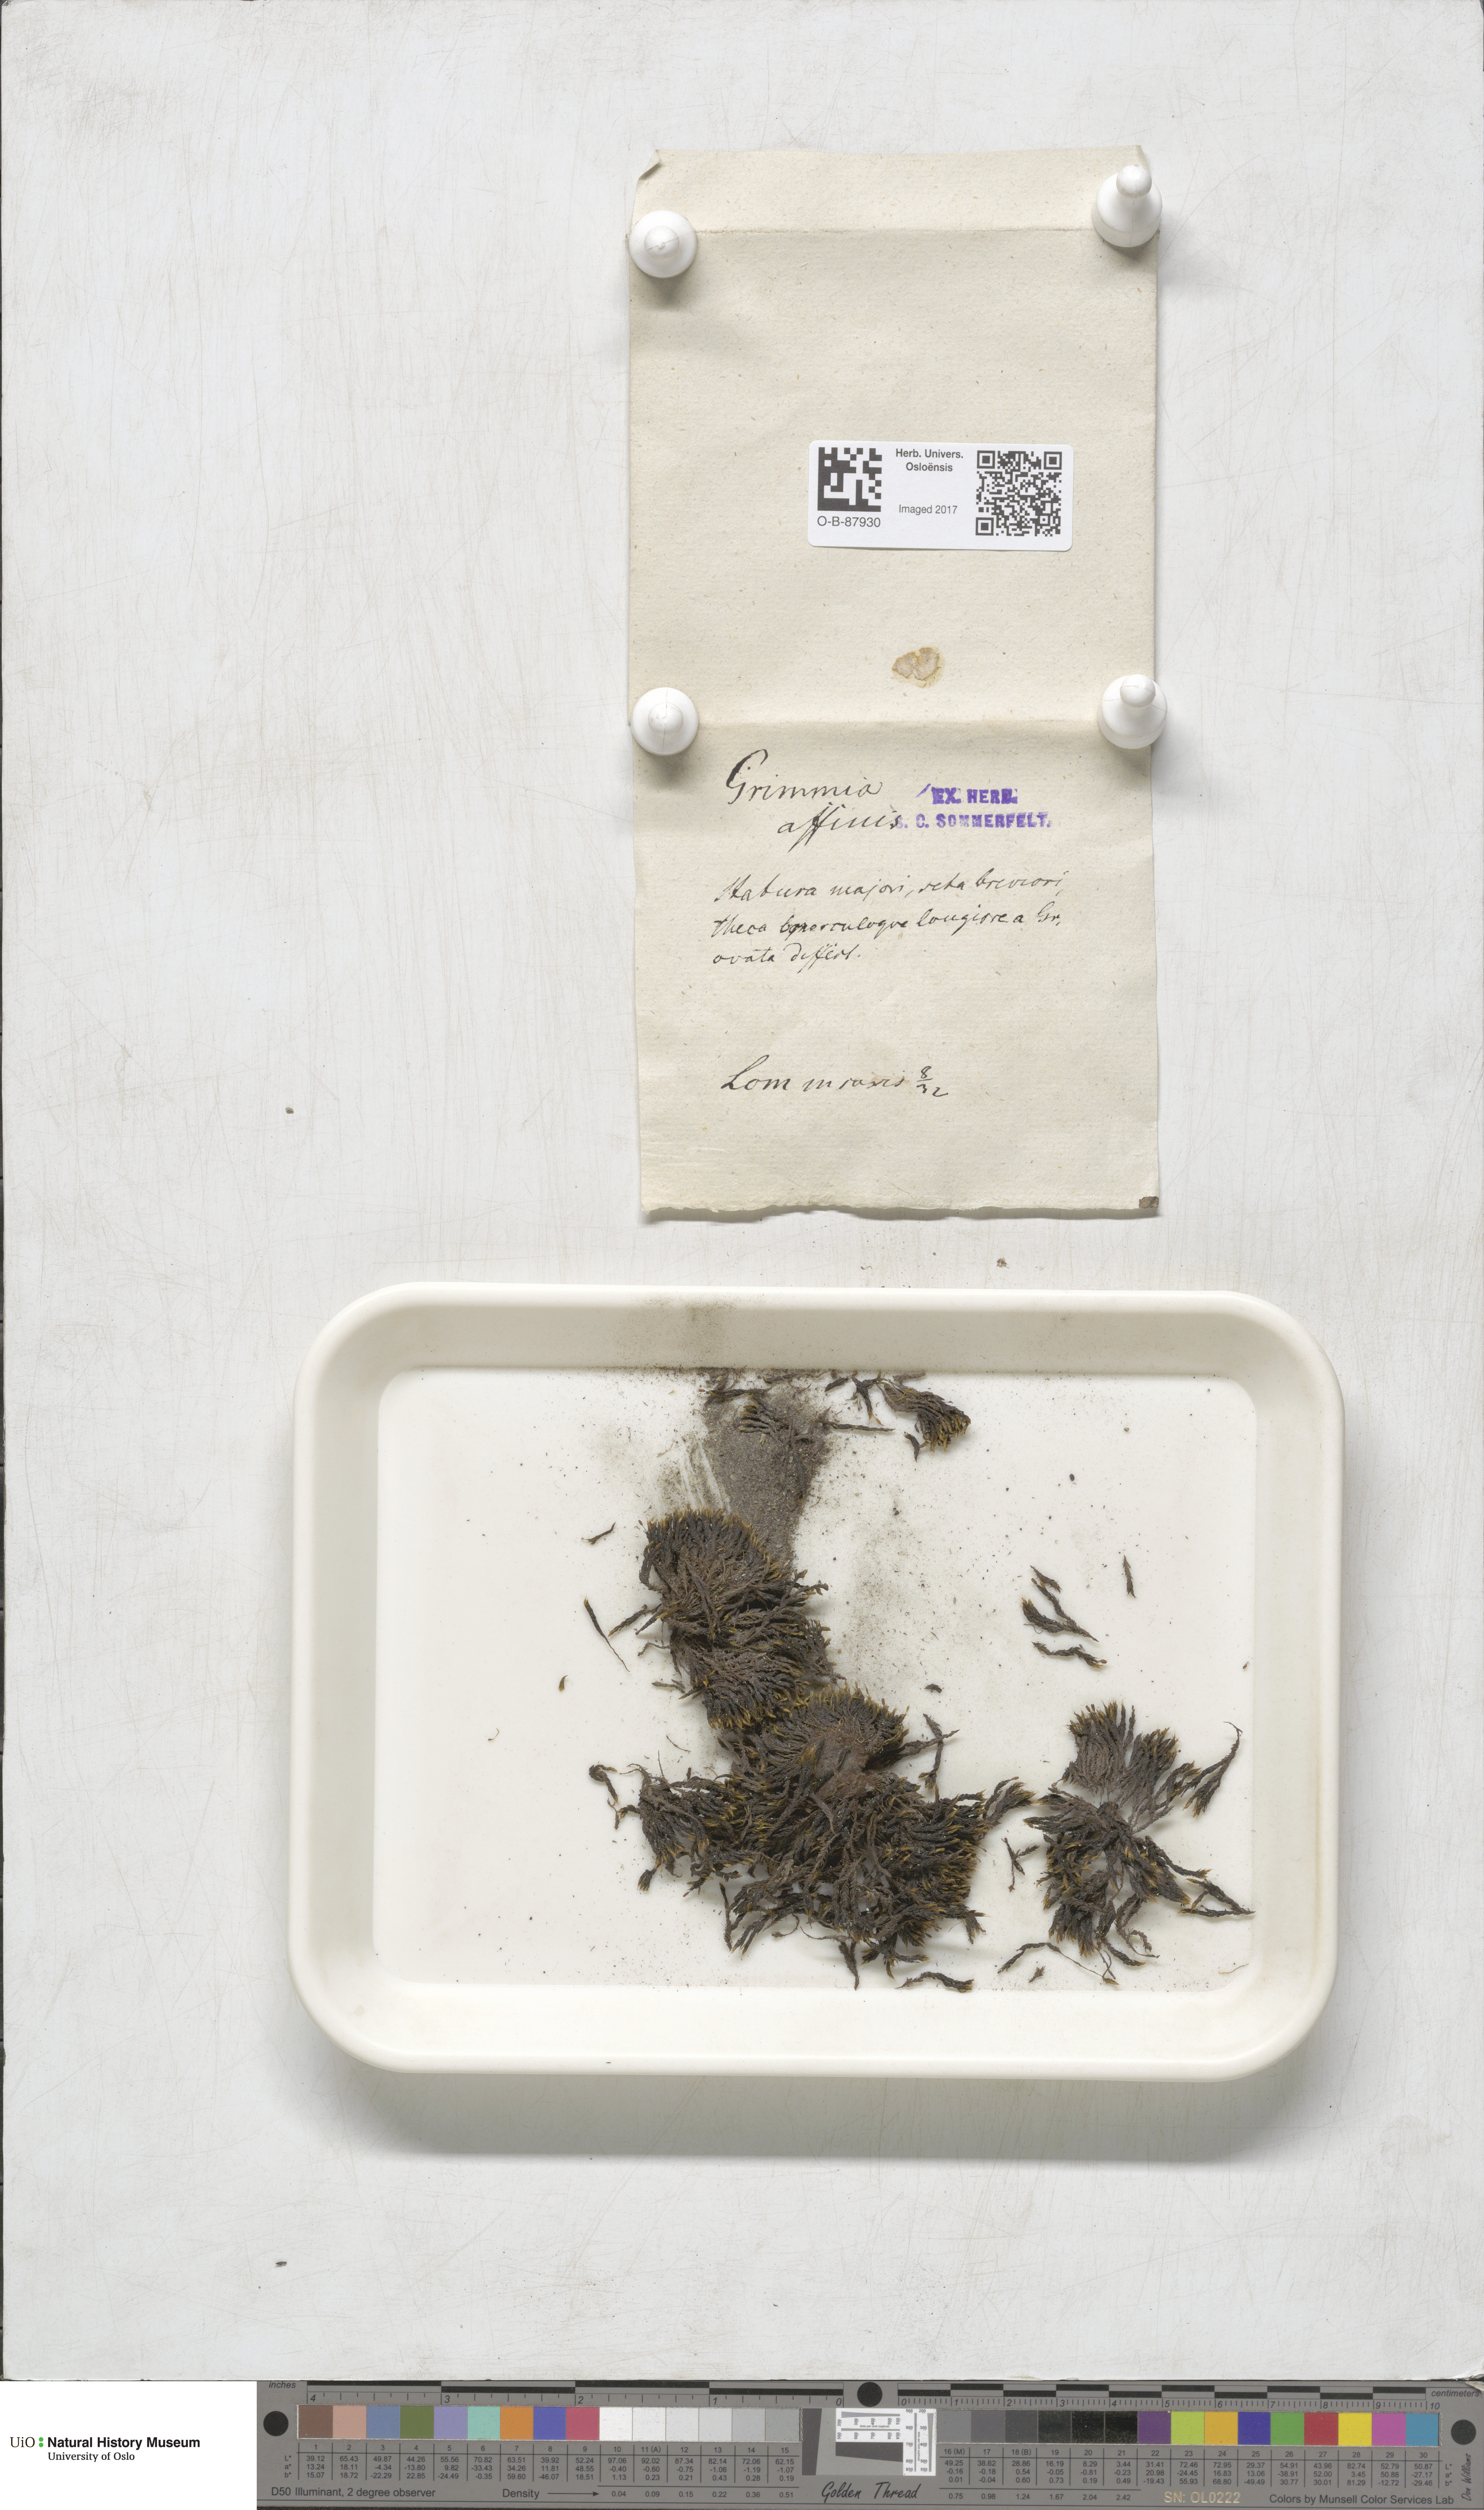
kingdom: Plantae
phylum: Bryophyta
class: Bryopsida
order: Grimmiales
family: Grimmiaceae
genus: Grimmia
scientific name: Grimmia ovalis
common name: Oval grimmia
